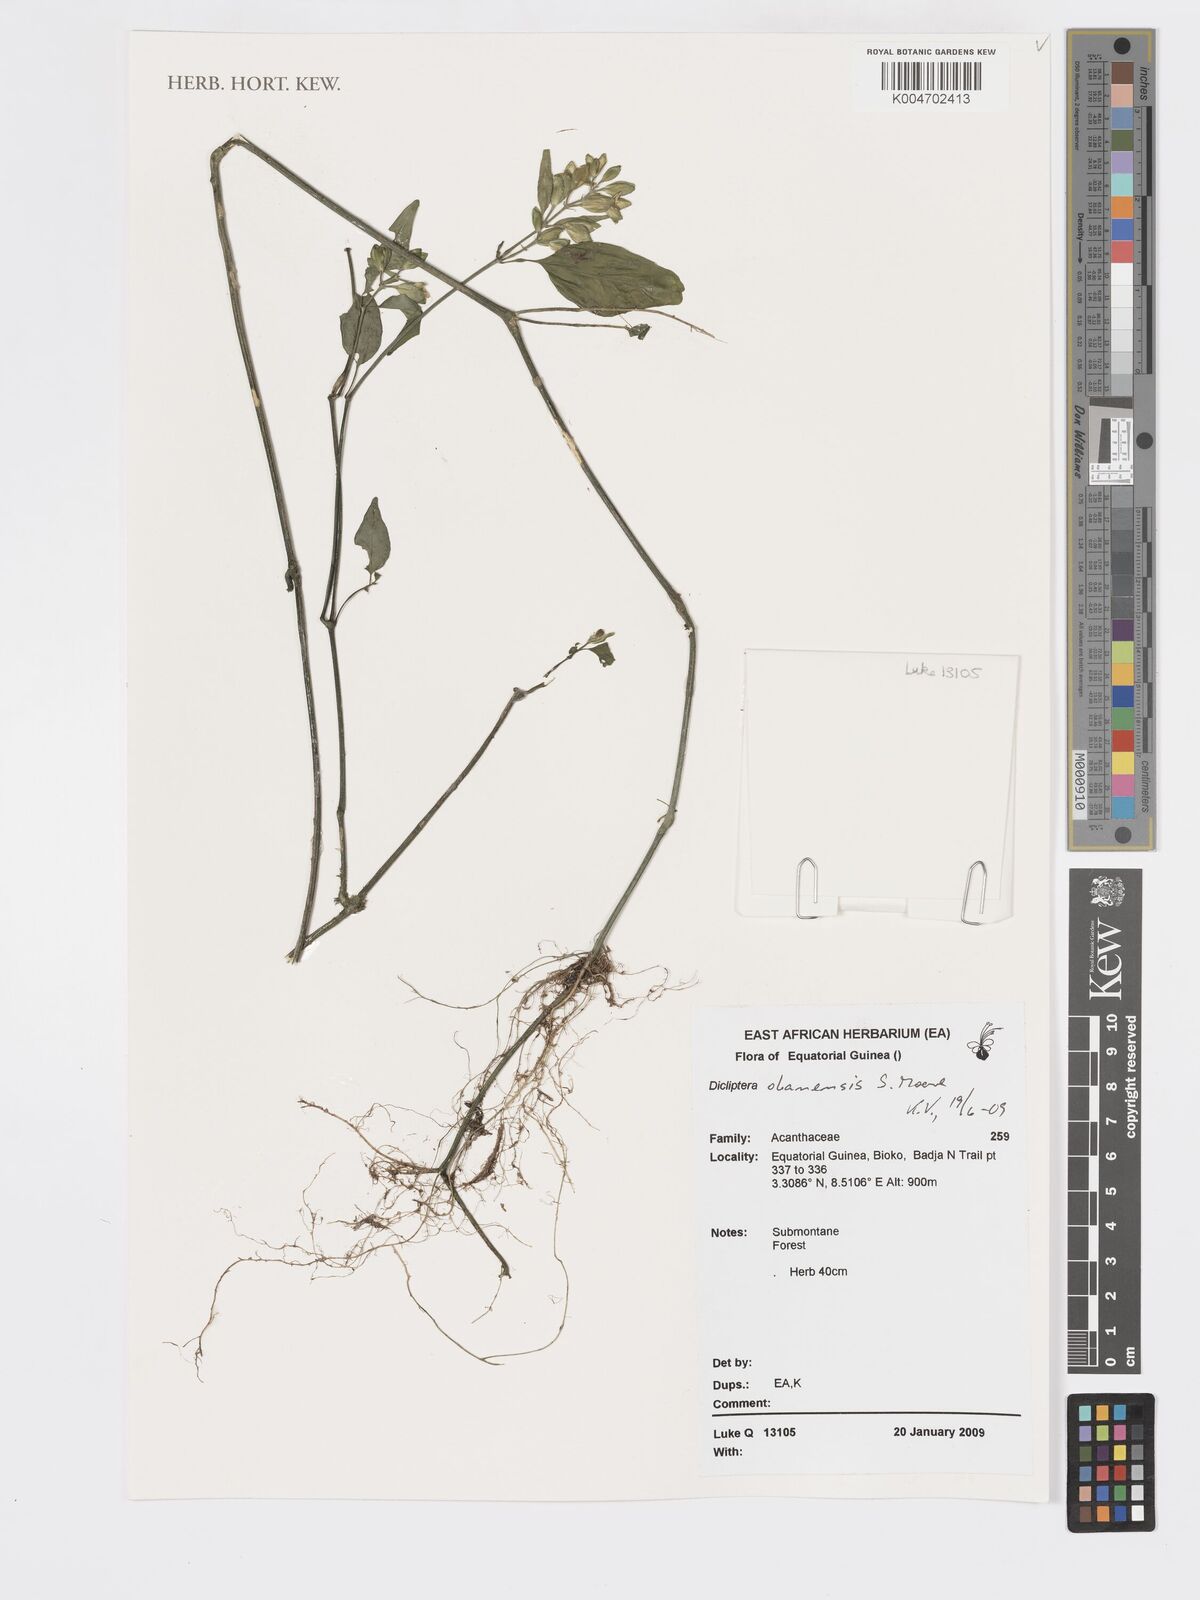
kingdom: Plantae
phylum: Tracheophyta
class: Magnoliopsida
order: Lamiales
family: Acanthaceae
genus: Dicliptera
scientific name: Dicliptera elliotii
